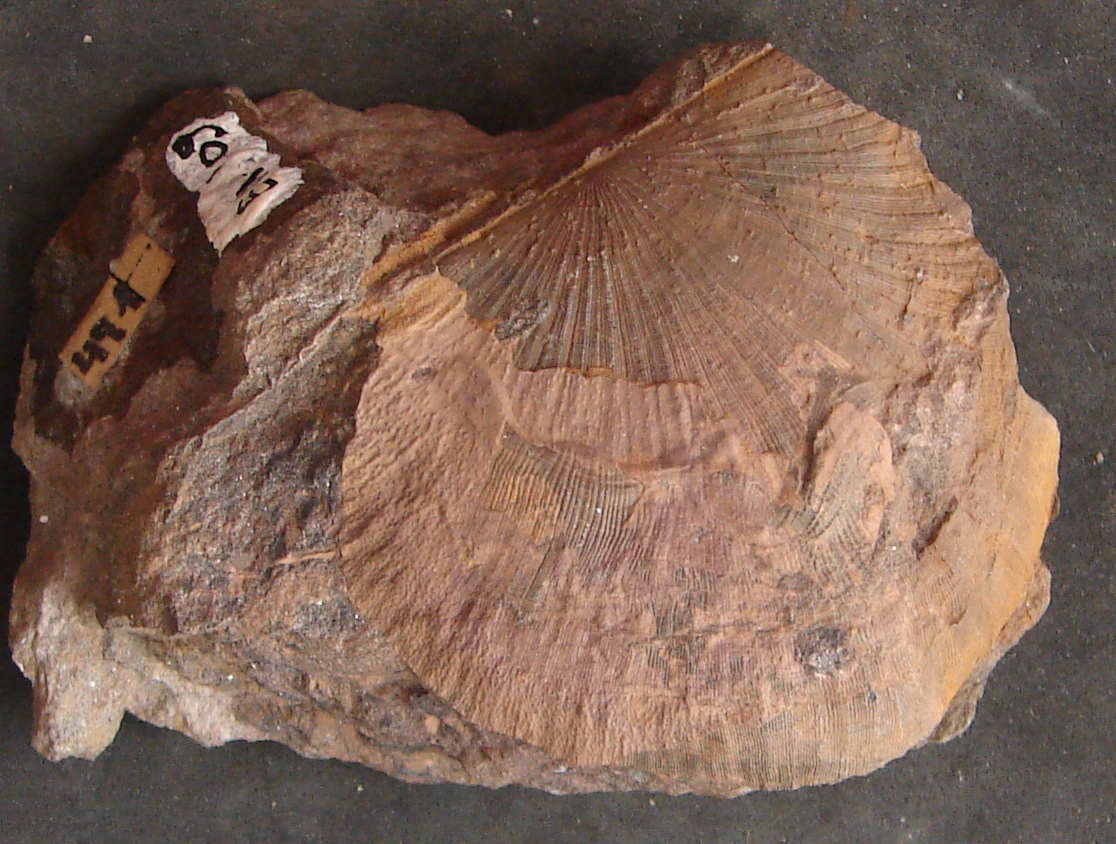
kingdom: Animalia
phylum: Brachiopoda
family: Strophodontidae
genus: Fascistropheodonta
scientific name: Fascistropheodonta
